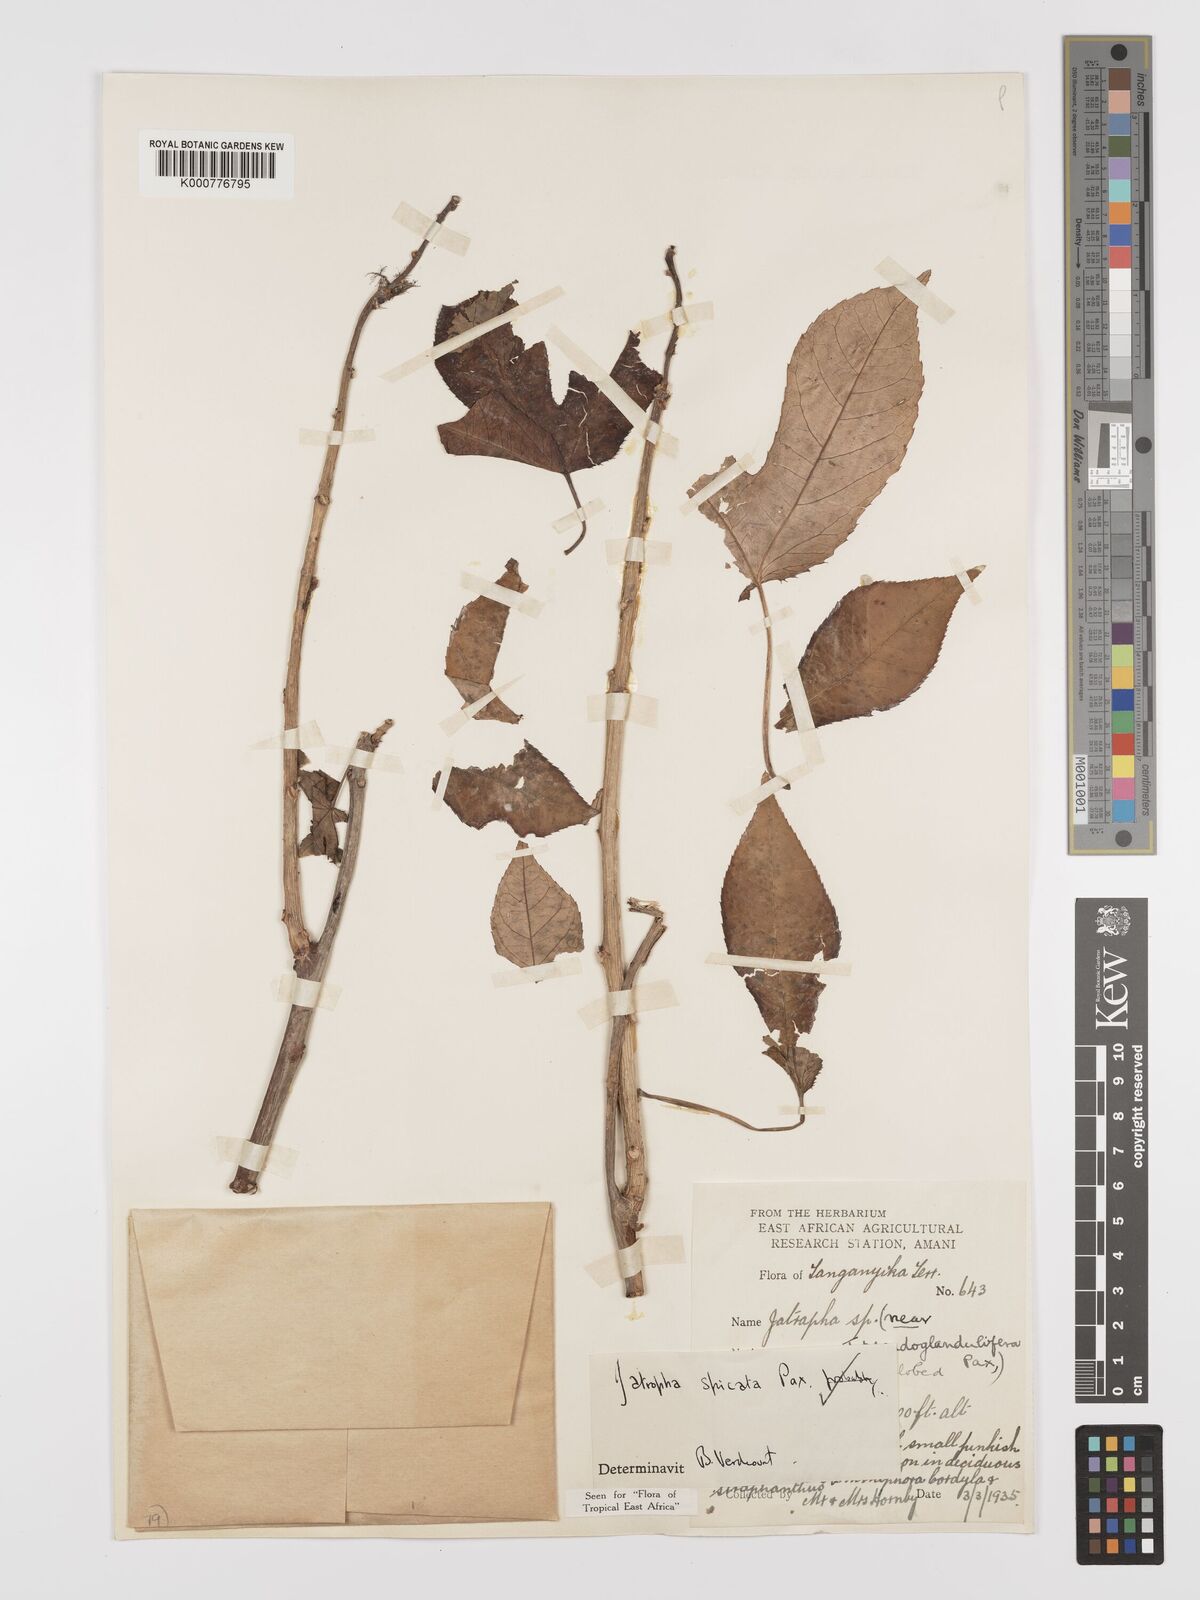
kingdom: Plantae
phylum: Tracheophyta
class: Magnoliopsida
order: Malpighiales
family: Euphorbiaceae
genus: Jatropha
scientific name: Jatropha spicata
